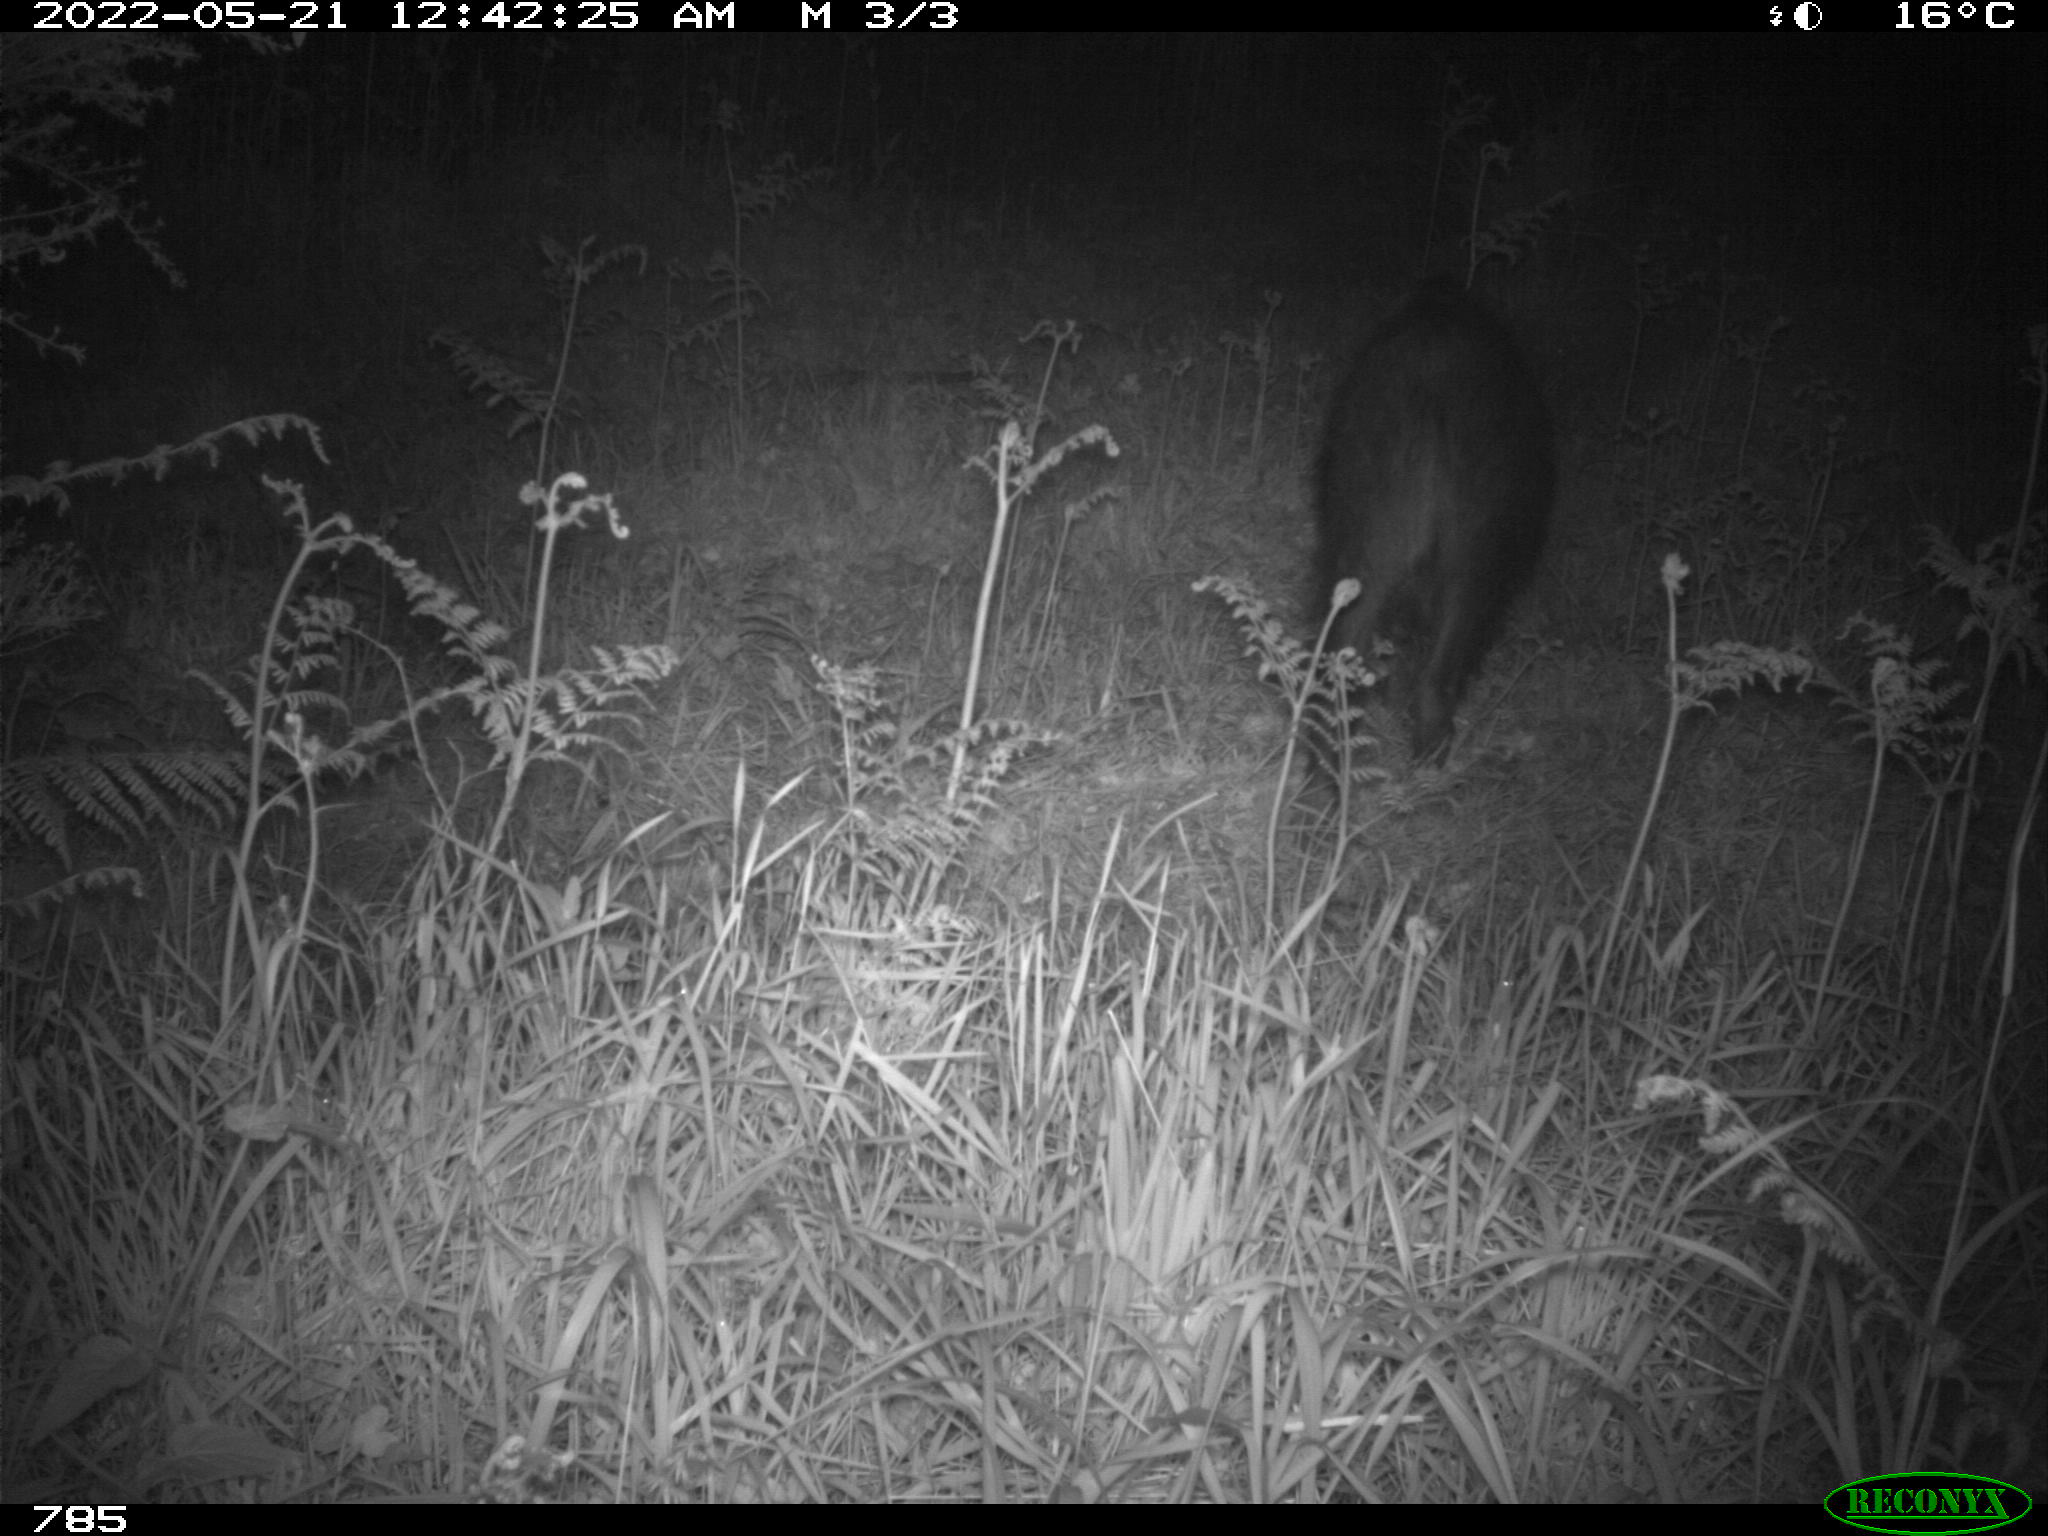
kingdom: Animalia
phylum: Chordata
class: Mammalia
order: Artiodactyla
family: Suidae
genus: Sus
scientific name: Sus scrofa
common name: Wild boar
